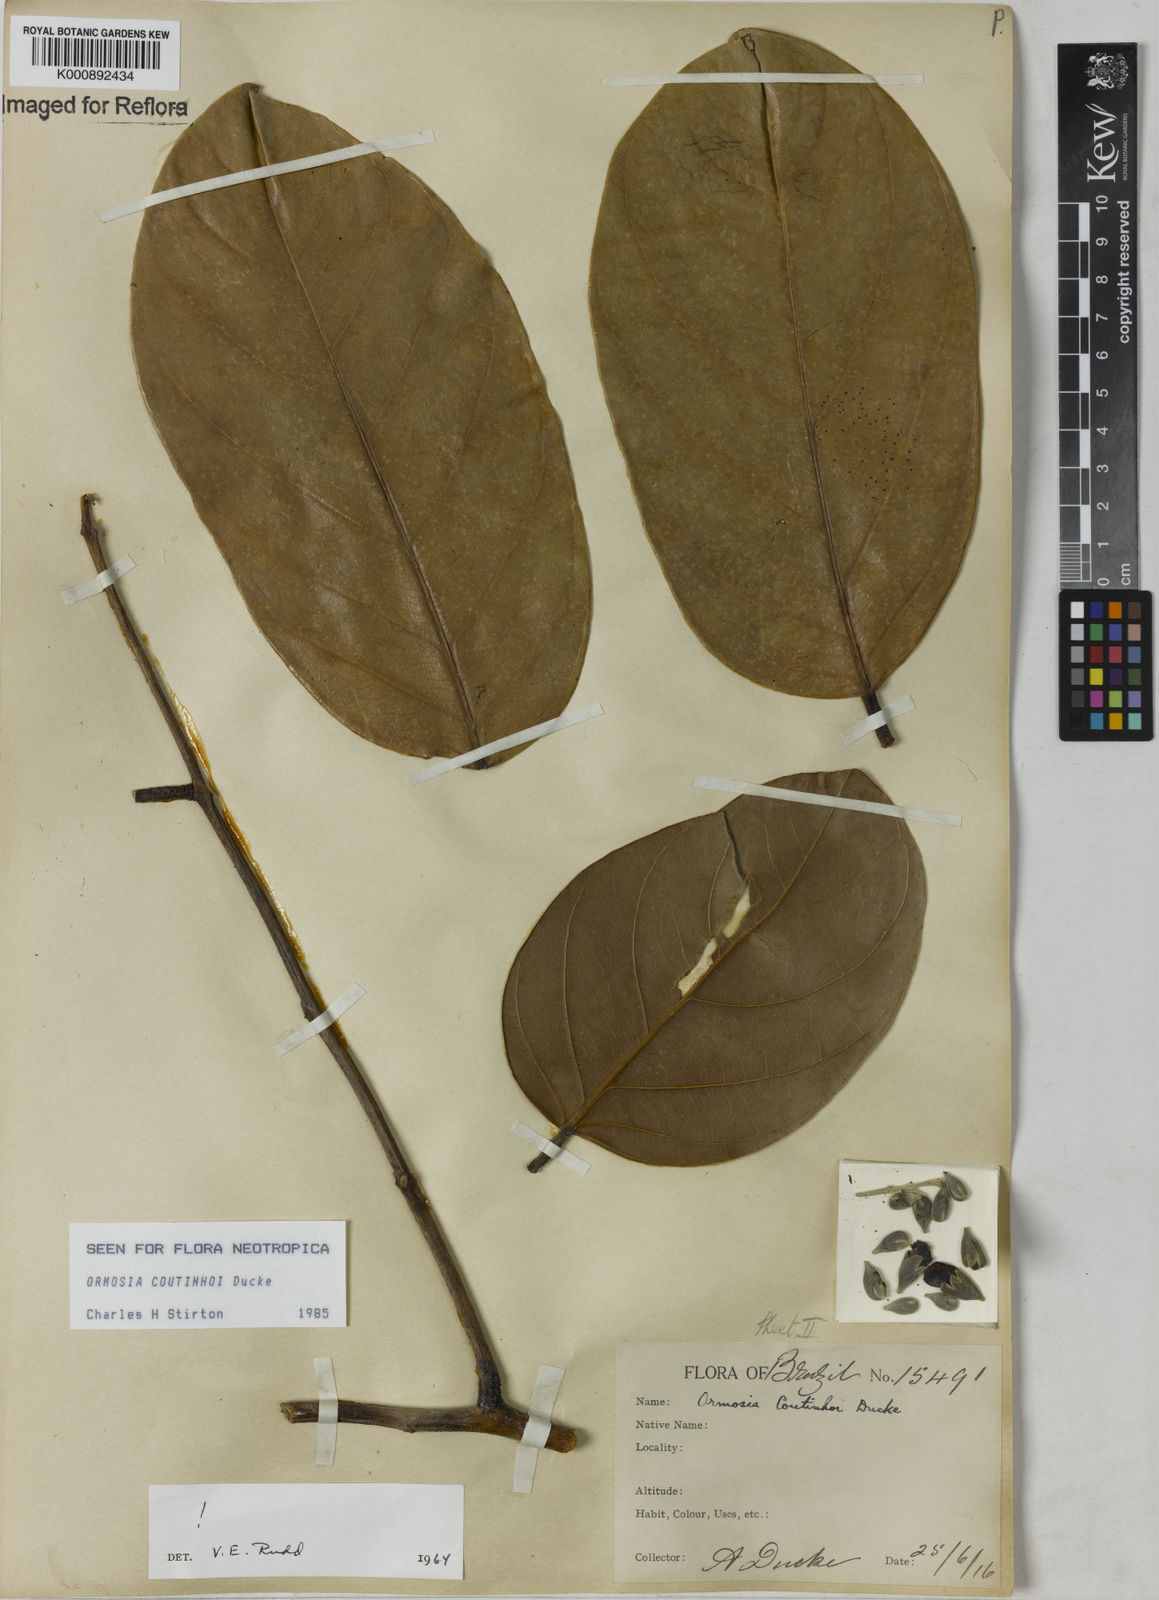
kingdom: Plantae
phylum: Tracheophyta
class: Magnoliopsida
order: Fabales
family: Fabaceae
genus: Ormosia
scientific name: Ormosia coutinhoi
